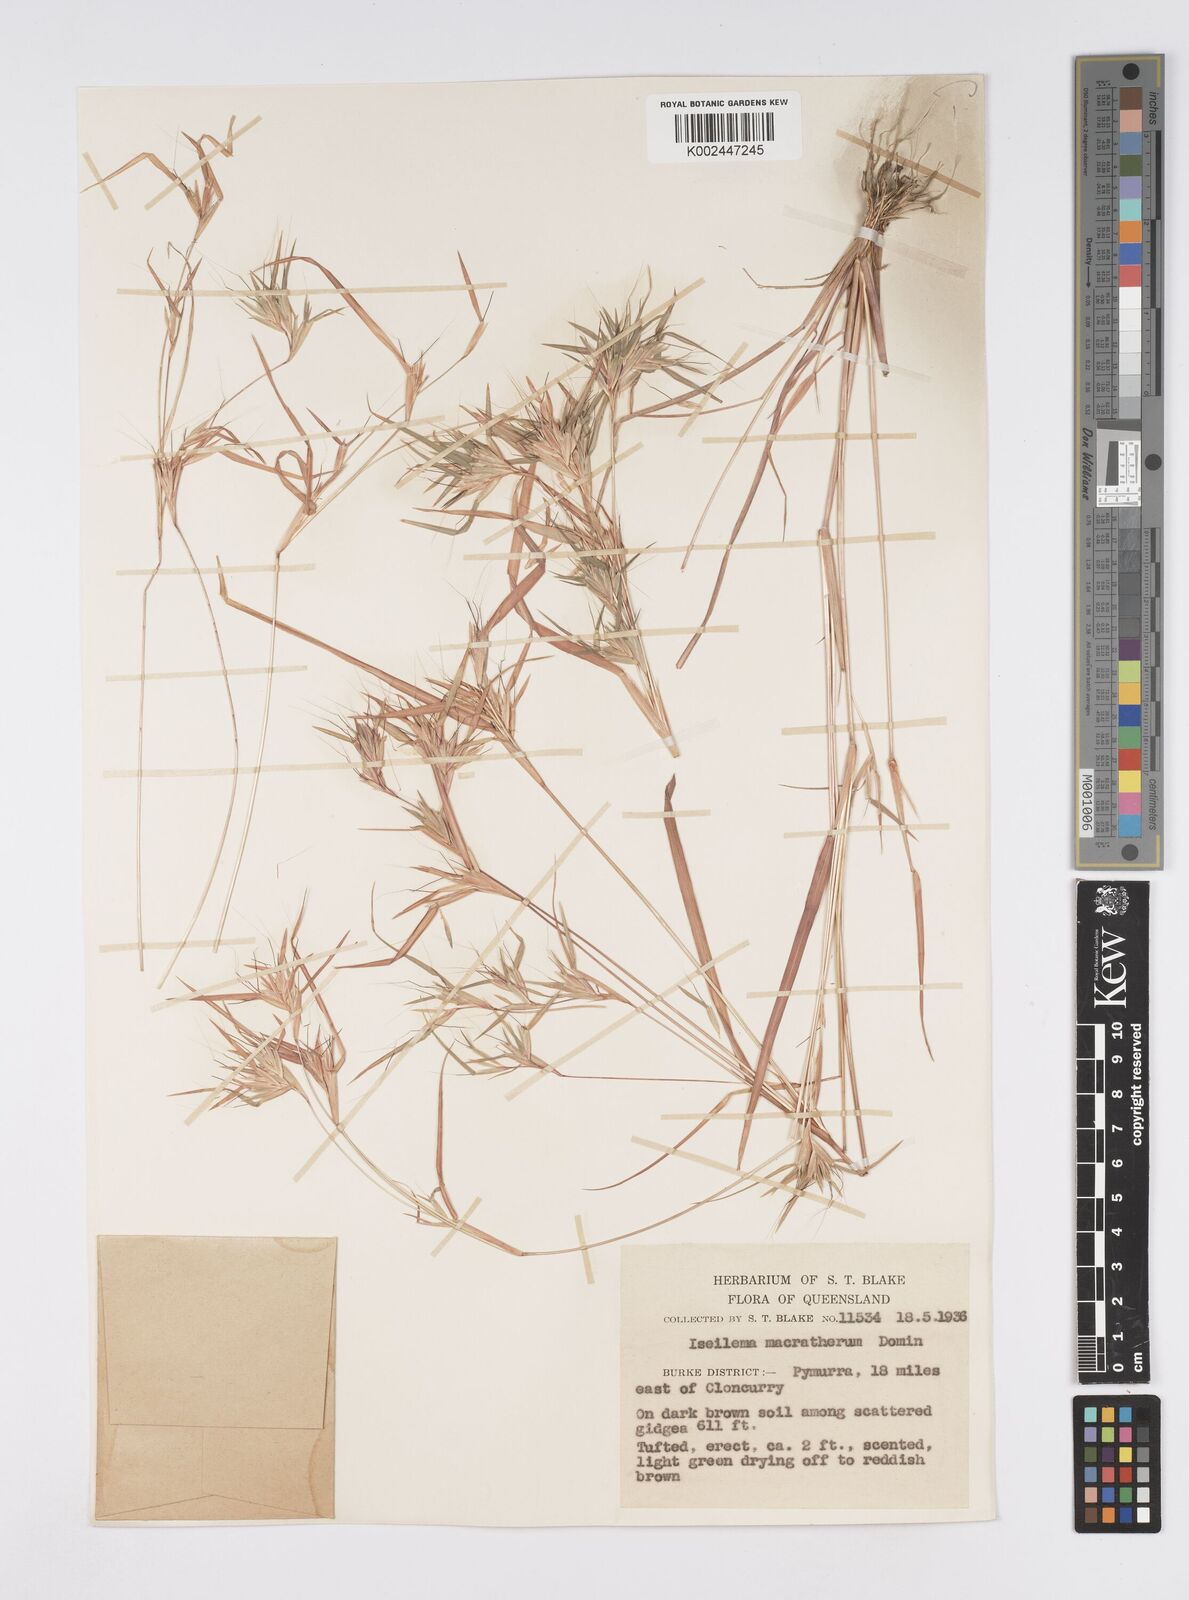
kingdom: Plantae
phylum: Tracheophyta
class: Liliopsida
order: Poales
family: Poaceae
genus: Iseilema
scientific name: Iseilema macratherum
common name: Bull flinders grass
